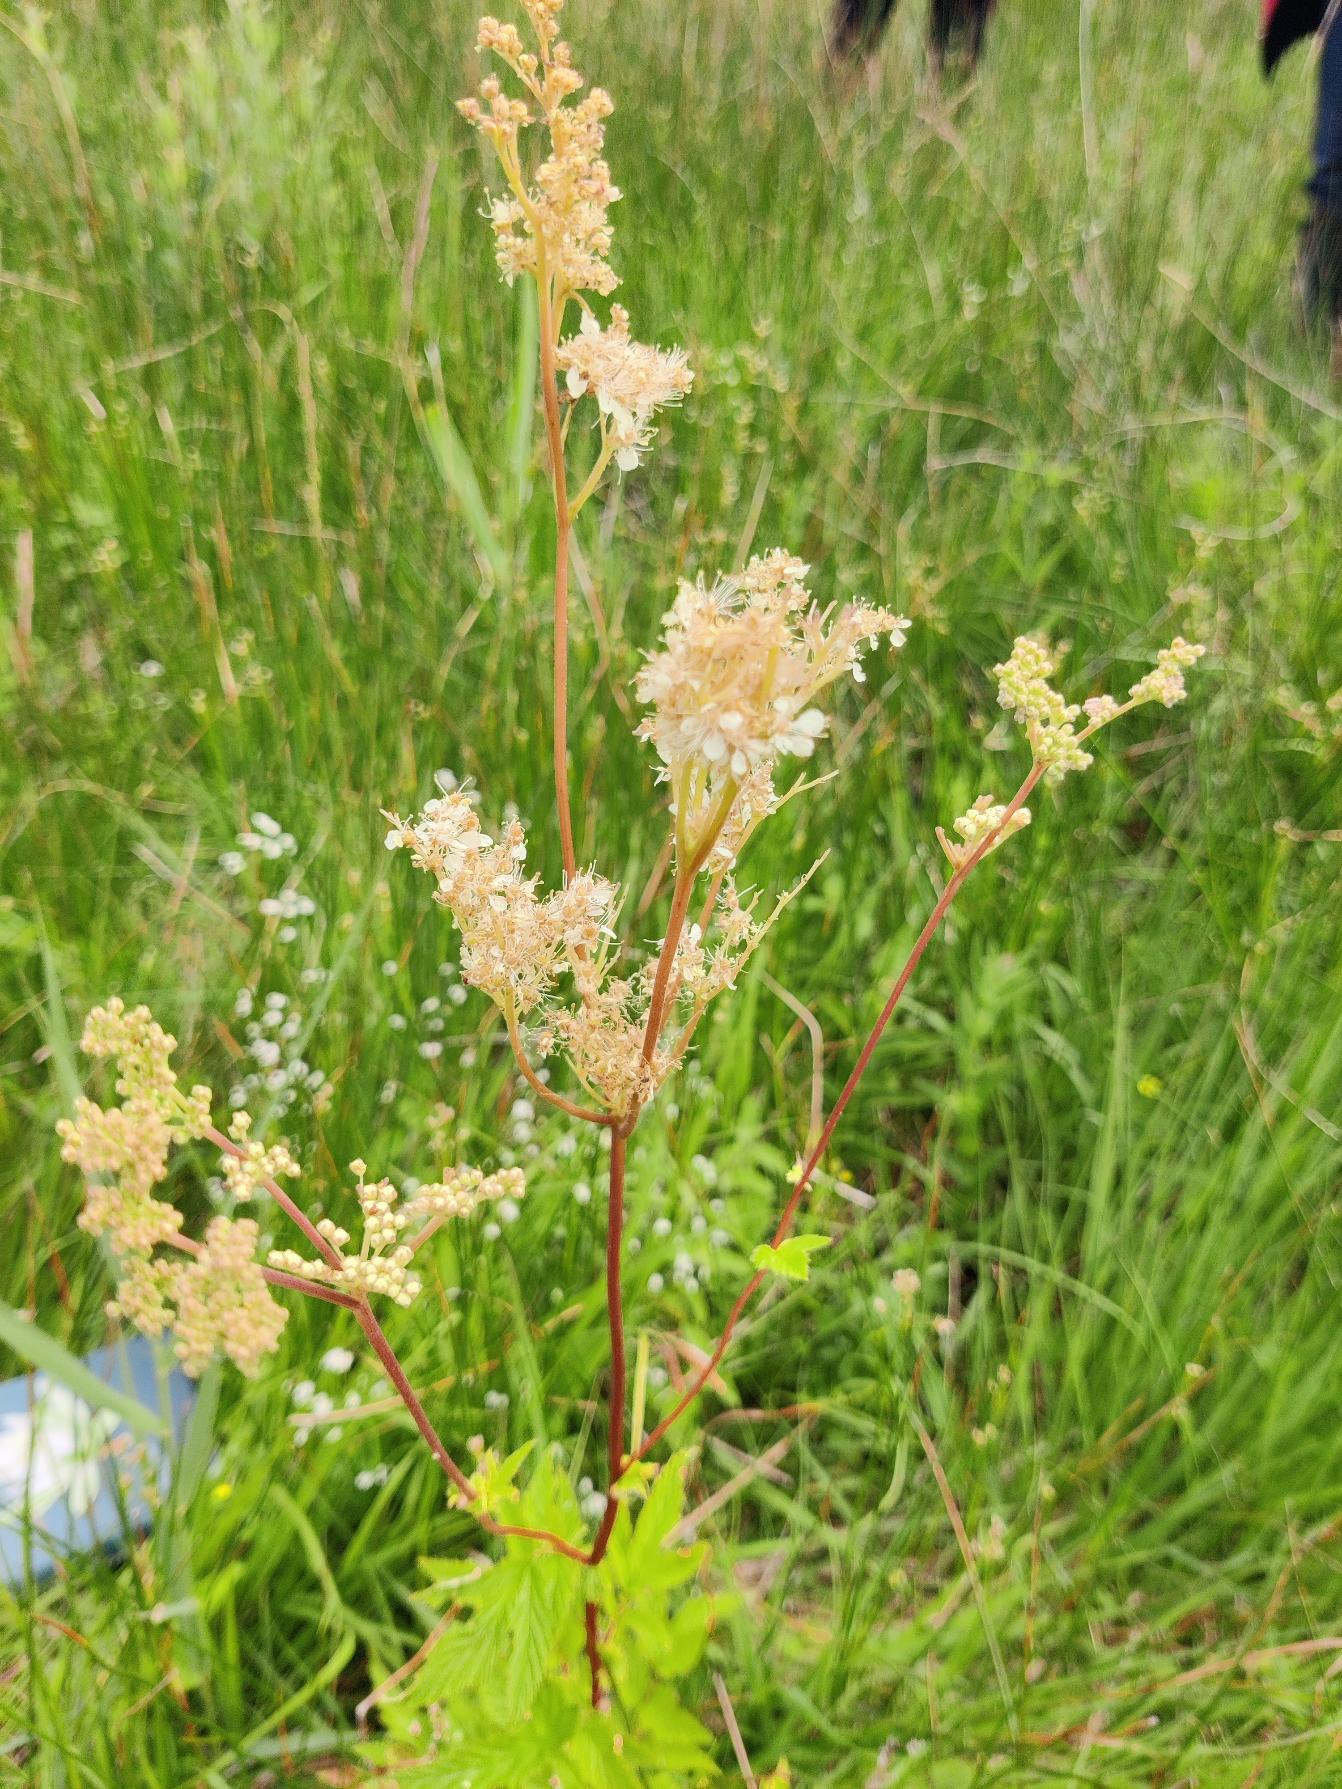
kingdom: Plantae
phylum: Tracheophyta
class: Magnoliopsida
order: Rosales
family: Rosaceae
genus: Filipendula
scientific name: Filipendula ulmaria
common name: Almindelig mjødurt
